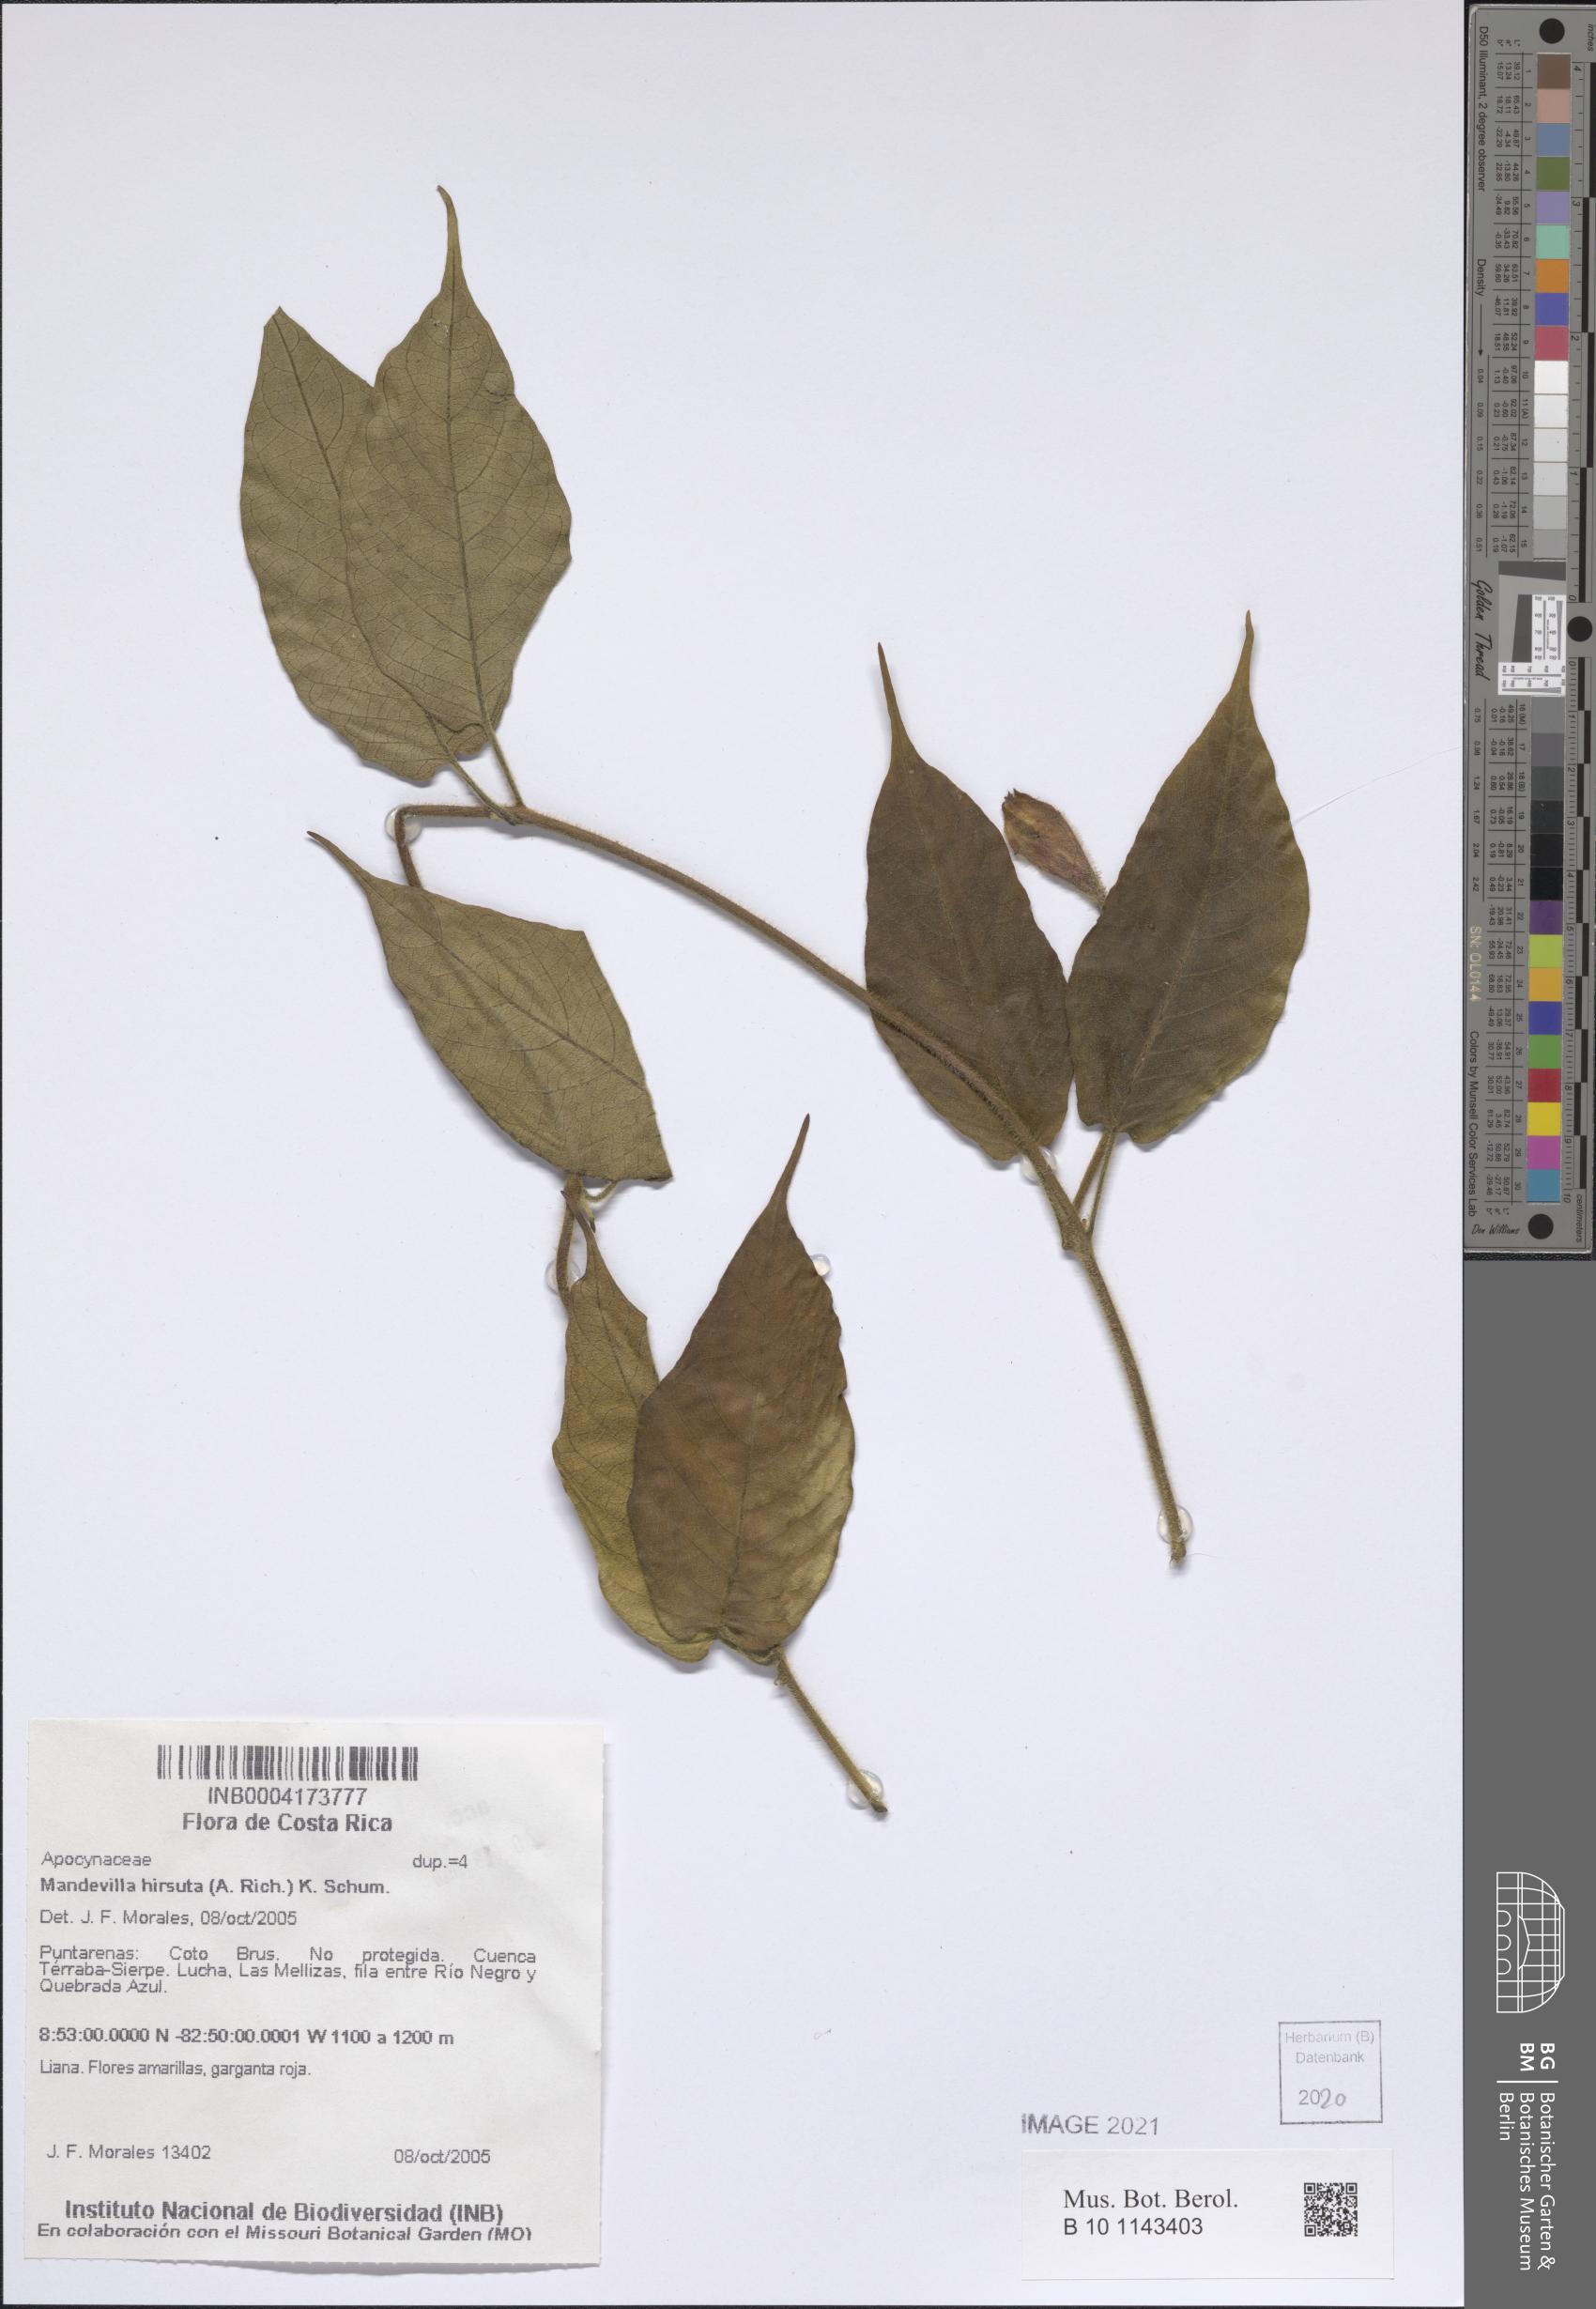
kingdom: Plantae
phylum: Tracheophyta
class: Magnoliopsida
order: Gentianales
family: Apocynaceae
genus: Mandevilla
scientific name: Mandevilla hirsuta
